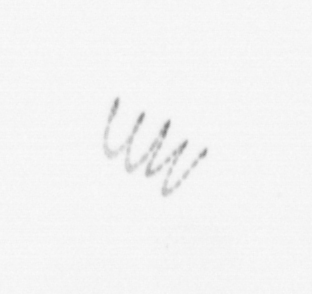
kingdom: Chromista
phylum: Ochrophyta
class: Bacillariophyceae
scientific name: Bacillariophyceae
